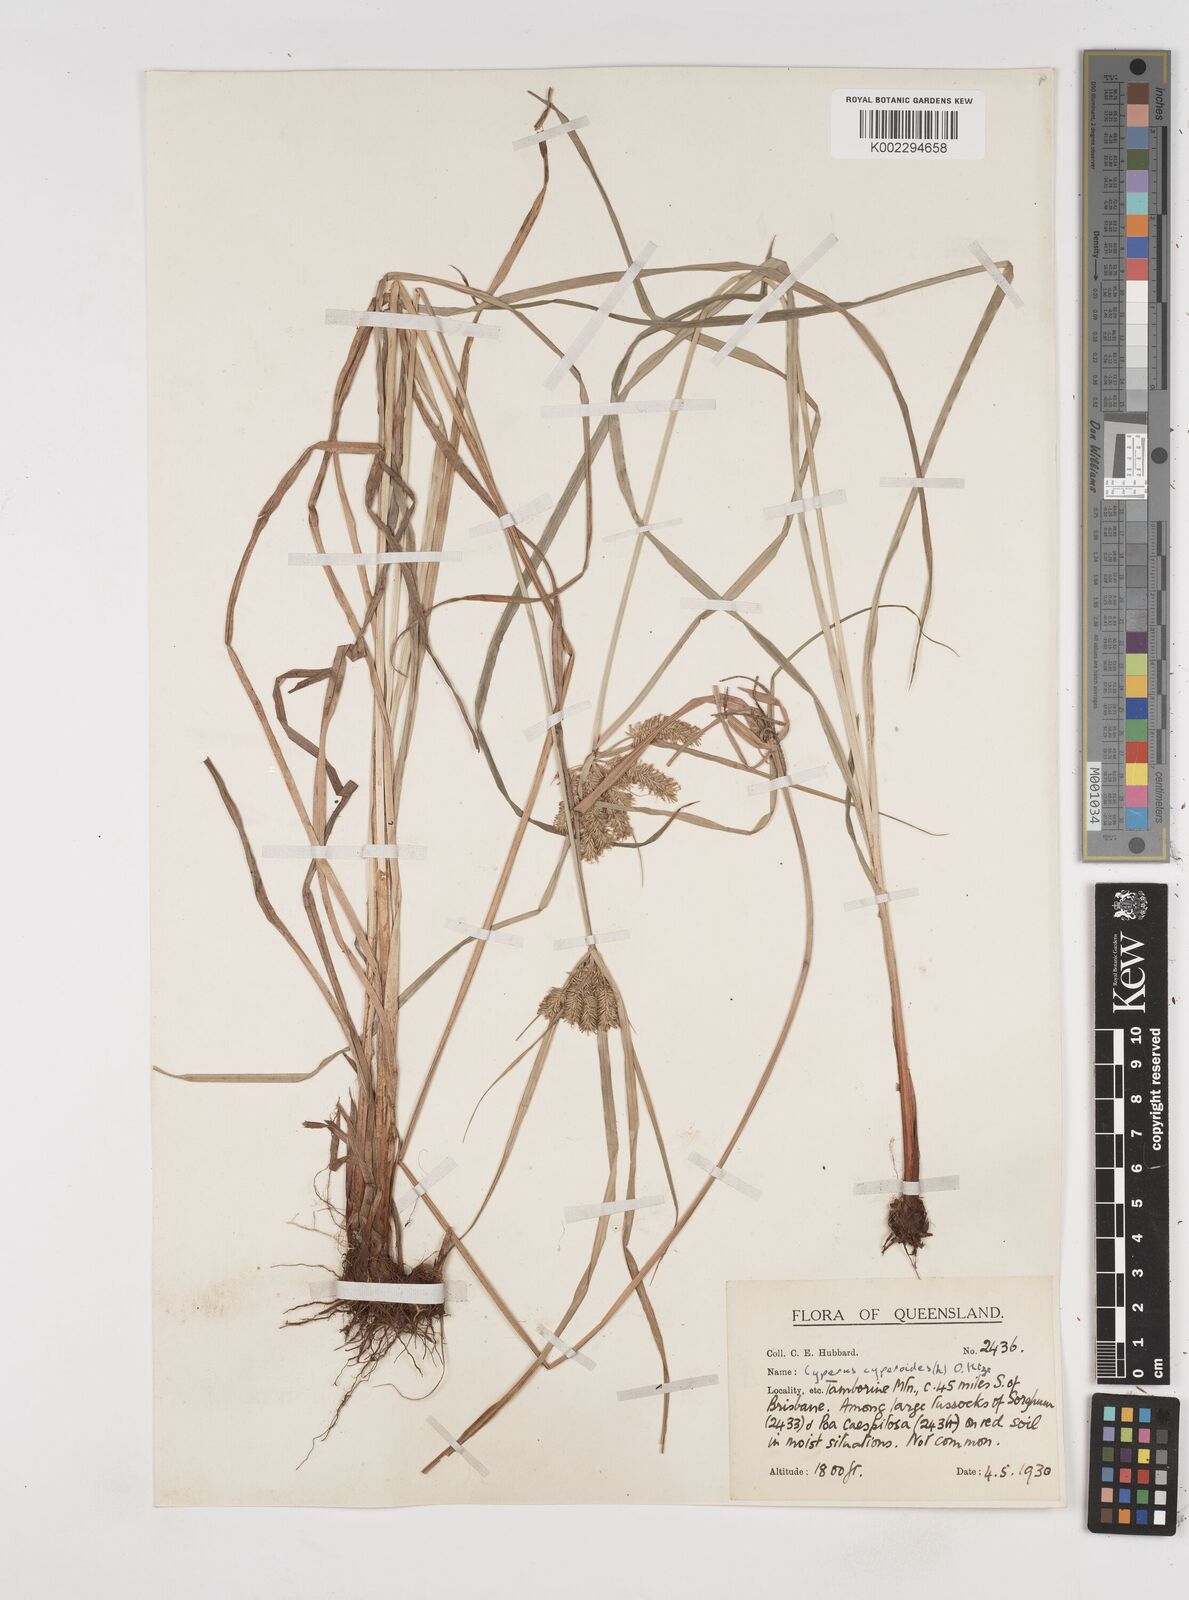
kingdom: Plantae
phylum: Tracheophyta
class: Liliopsida
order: Poales
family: Cyperaceae
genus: Cyperus
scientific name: Cyperus cyperoides
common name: Pacific island flat sedge
